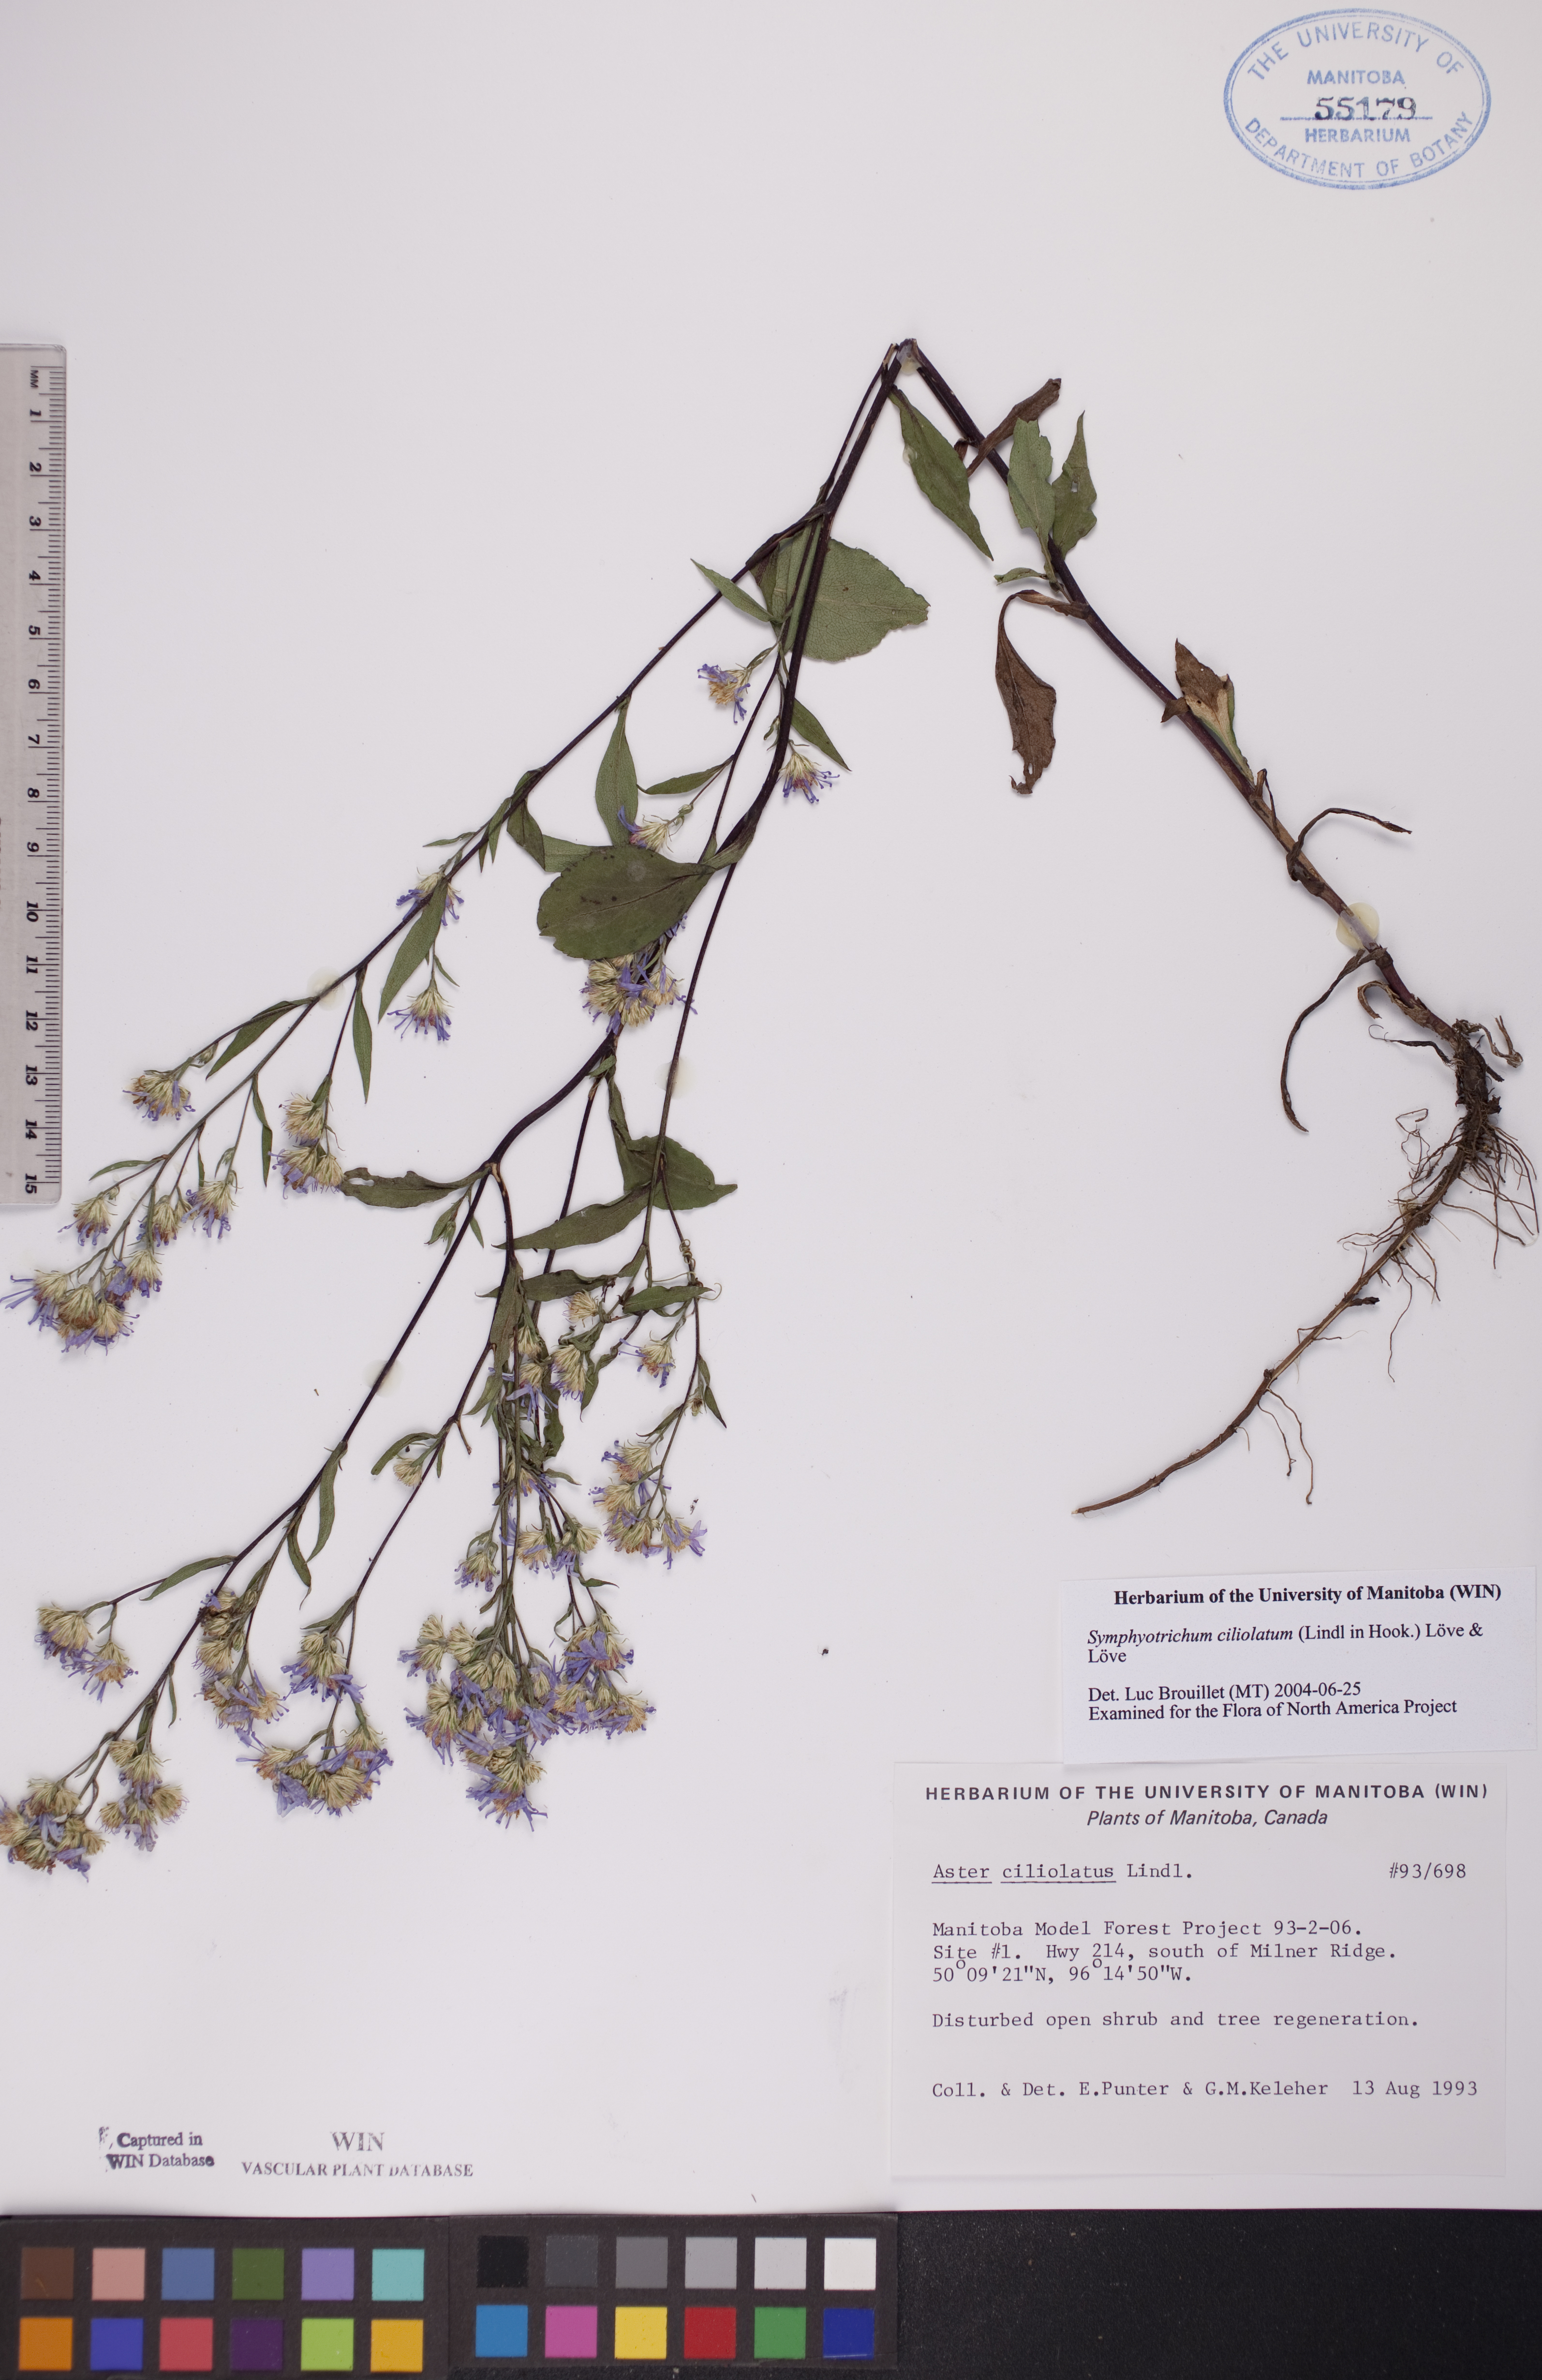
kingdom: Plantae
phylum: Tracheophyta
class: Magnoliopsida
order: Asterales
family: Asteraceae
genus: Symphyotrichum
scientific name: Symphyotrichum ciliolatum
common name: Fringed blue aster
